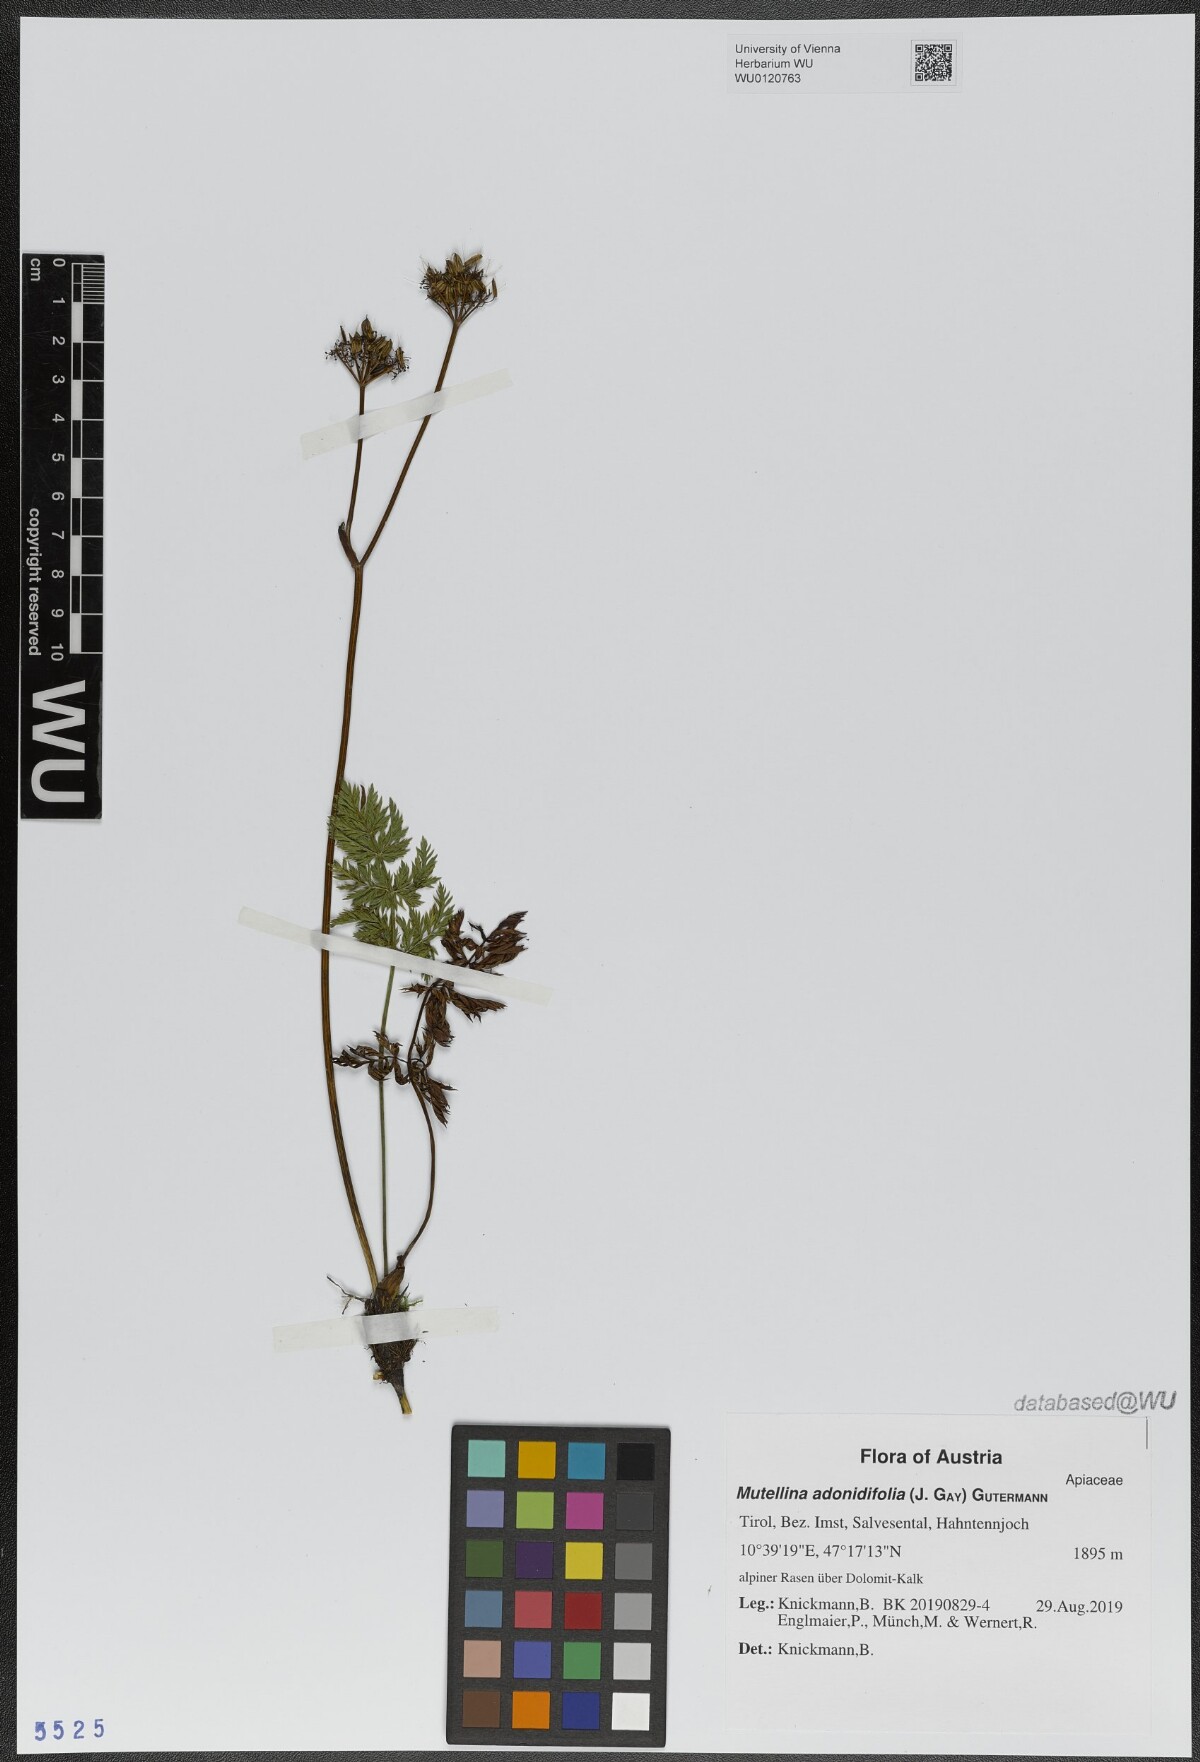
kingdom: Plantae
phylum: Tracheophyta
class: Magnoliopsida
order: Apiales
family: Apiaceae
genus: Mutellina
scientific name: Mutellina adonidifolia
